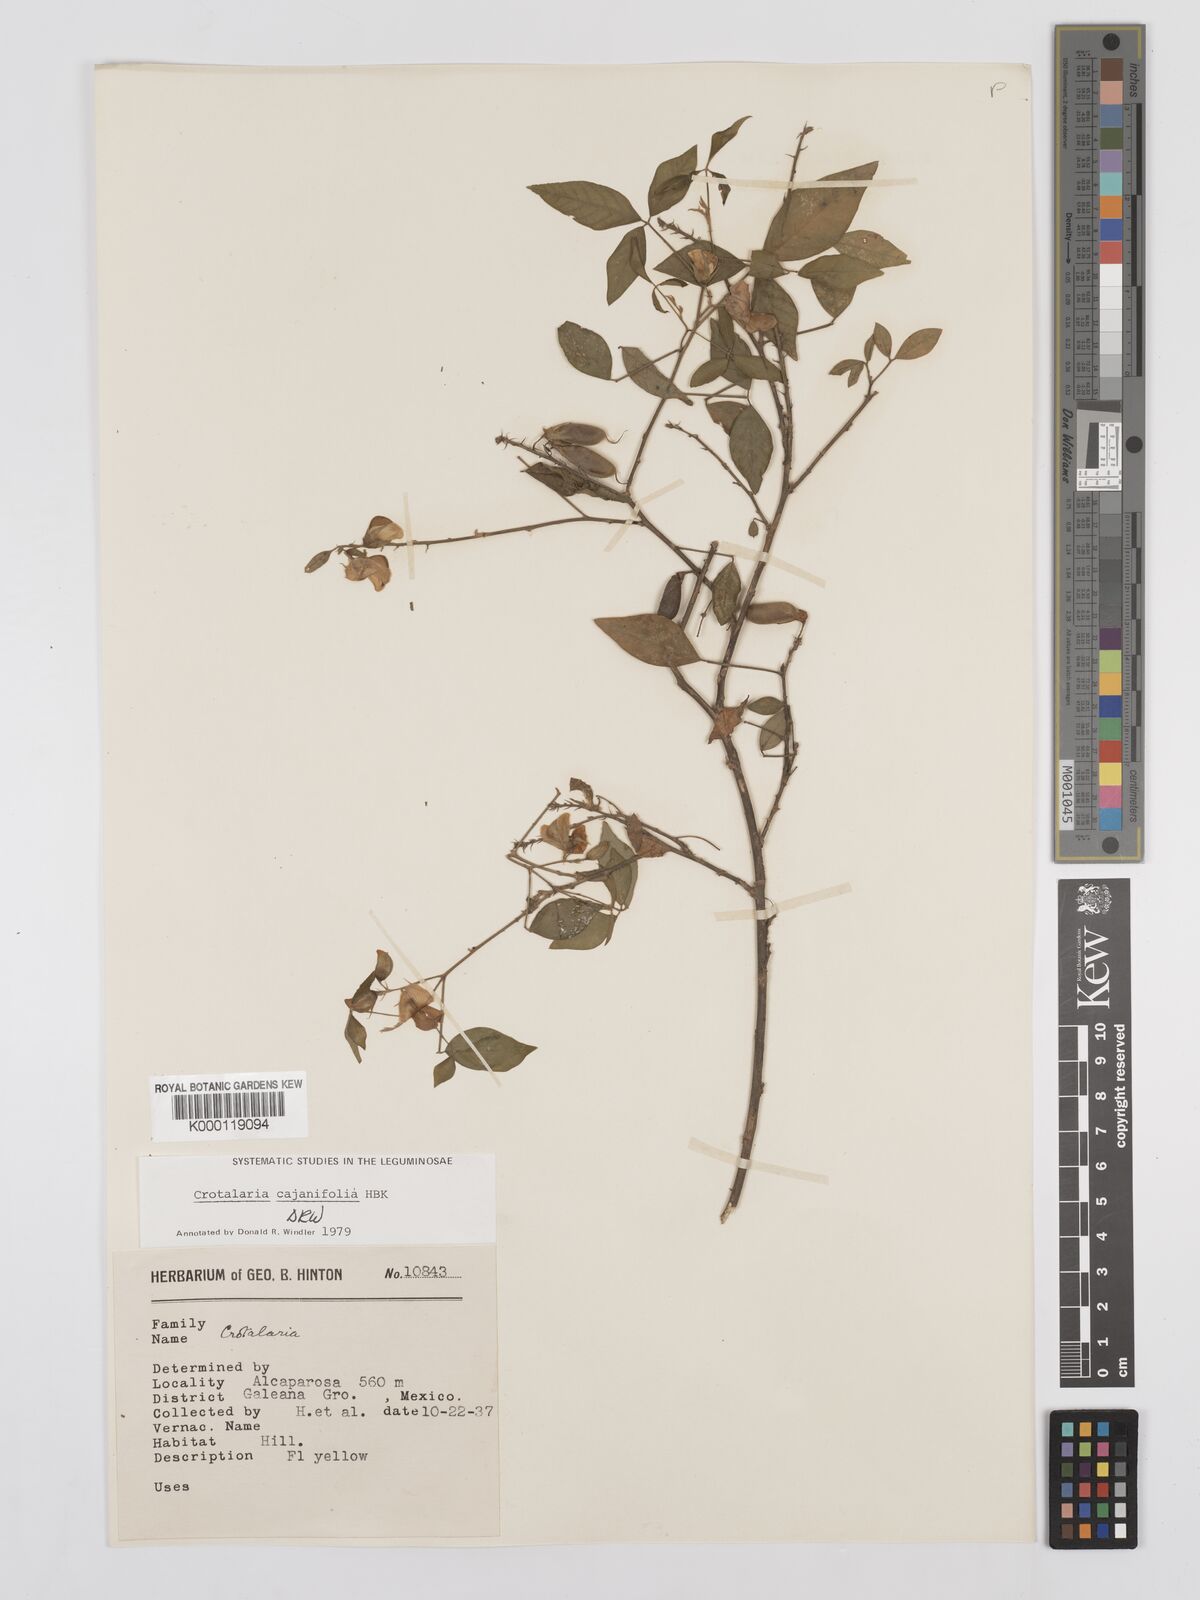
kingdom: Plantae
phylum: Tracheophyta
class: Magnoliopsida
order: Fabales
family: Fabaceae
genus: Crotalaria
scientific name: Crotalaria cajanifolia
